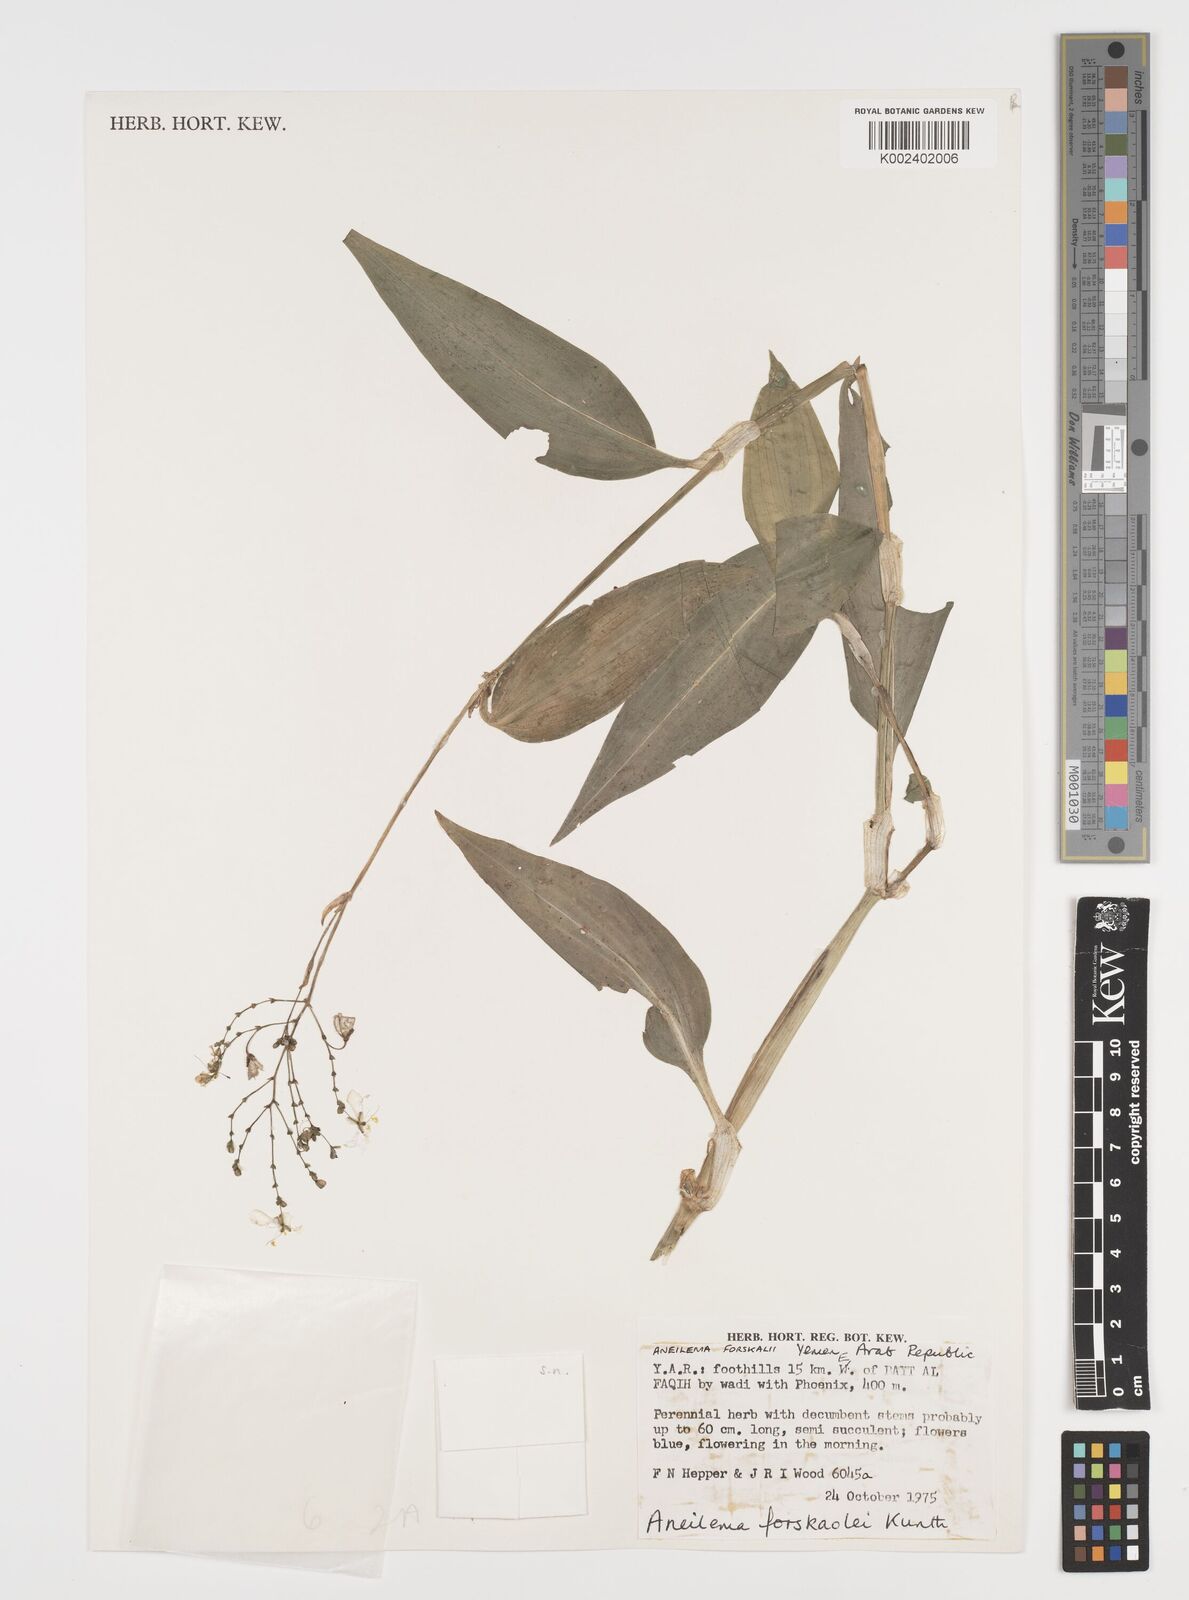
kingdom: Plantae
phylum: Tracheophyta
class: Liliopsida
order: Commelinales
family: Commelinaceae
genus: Aneilema
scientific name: Aneilema forskalii
